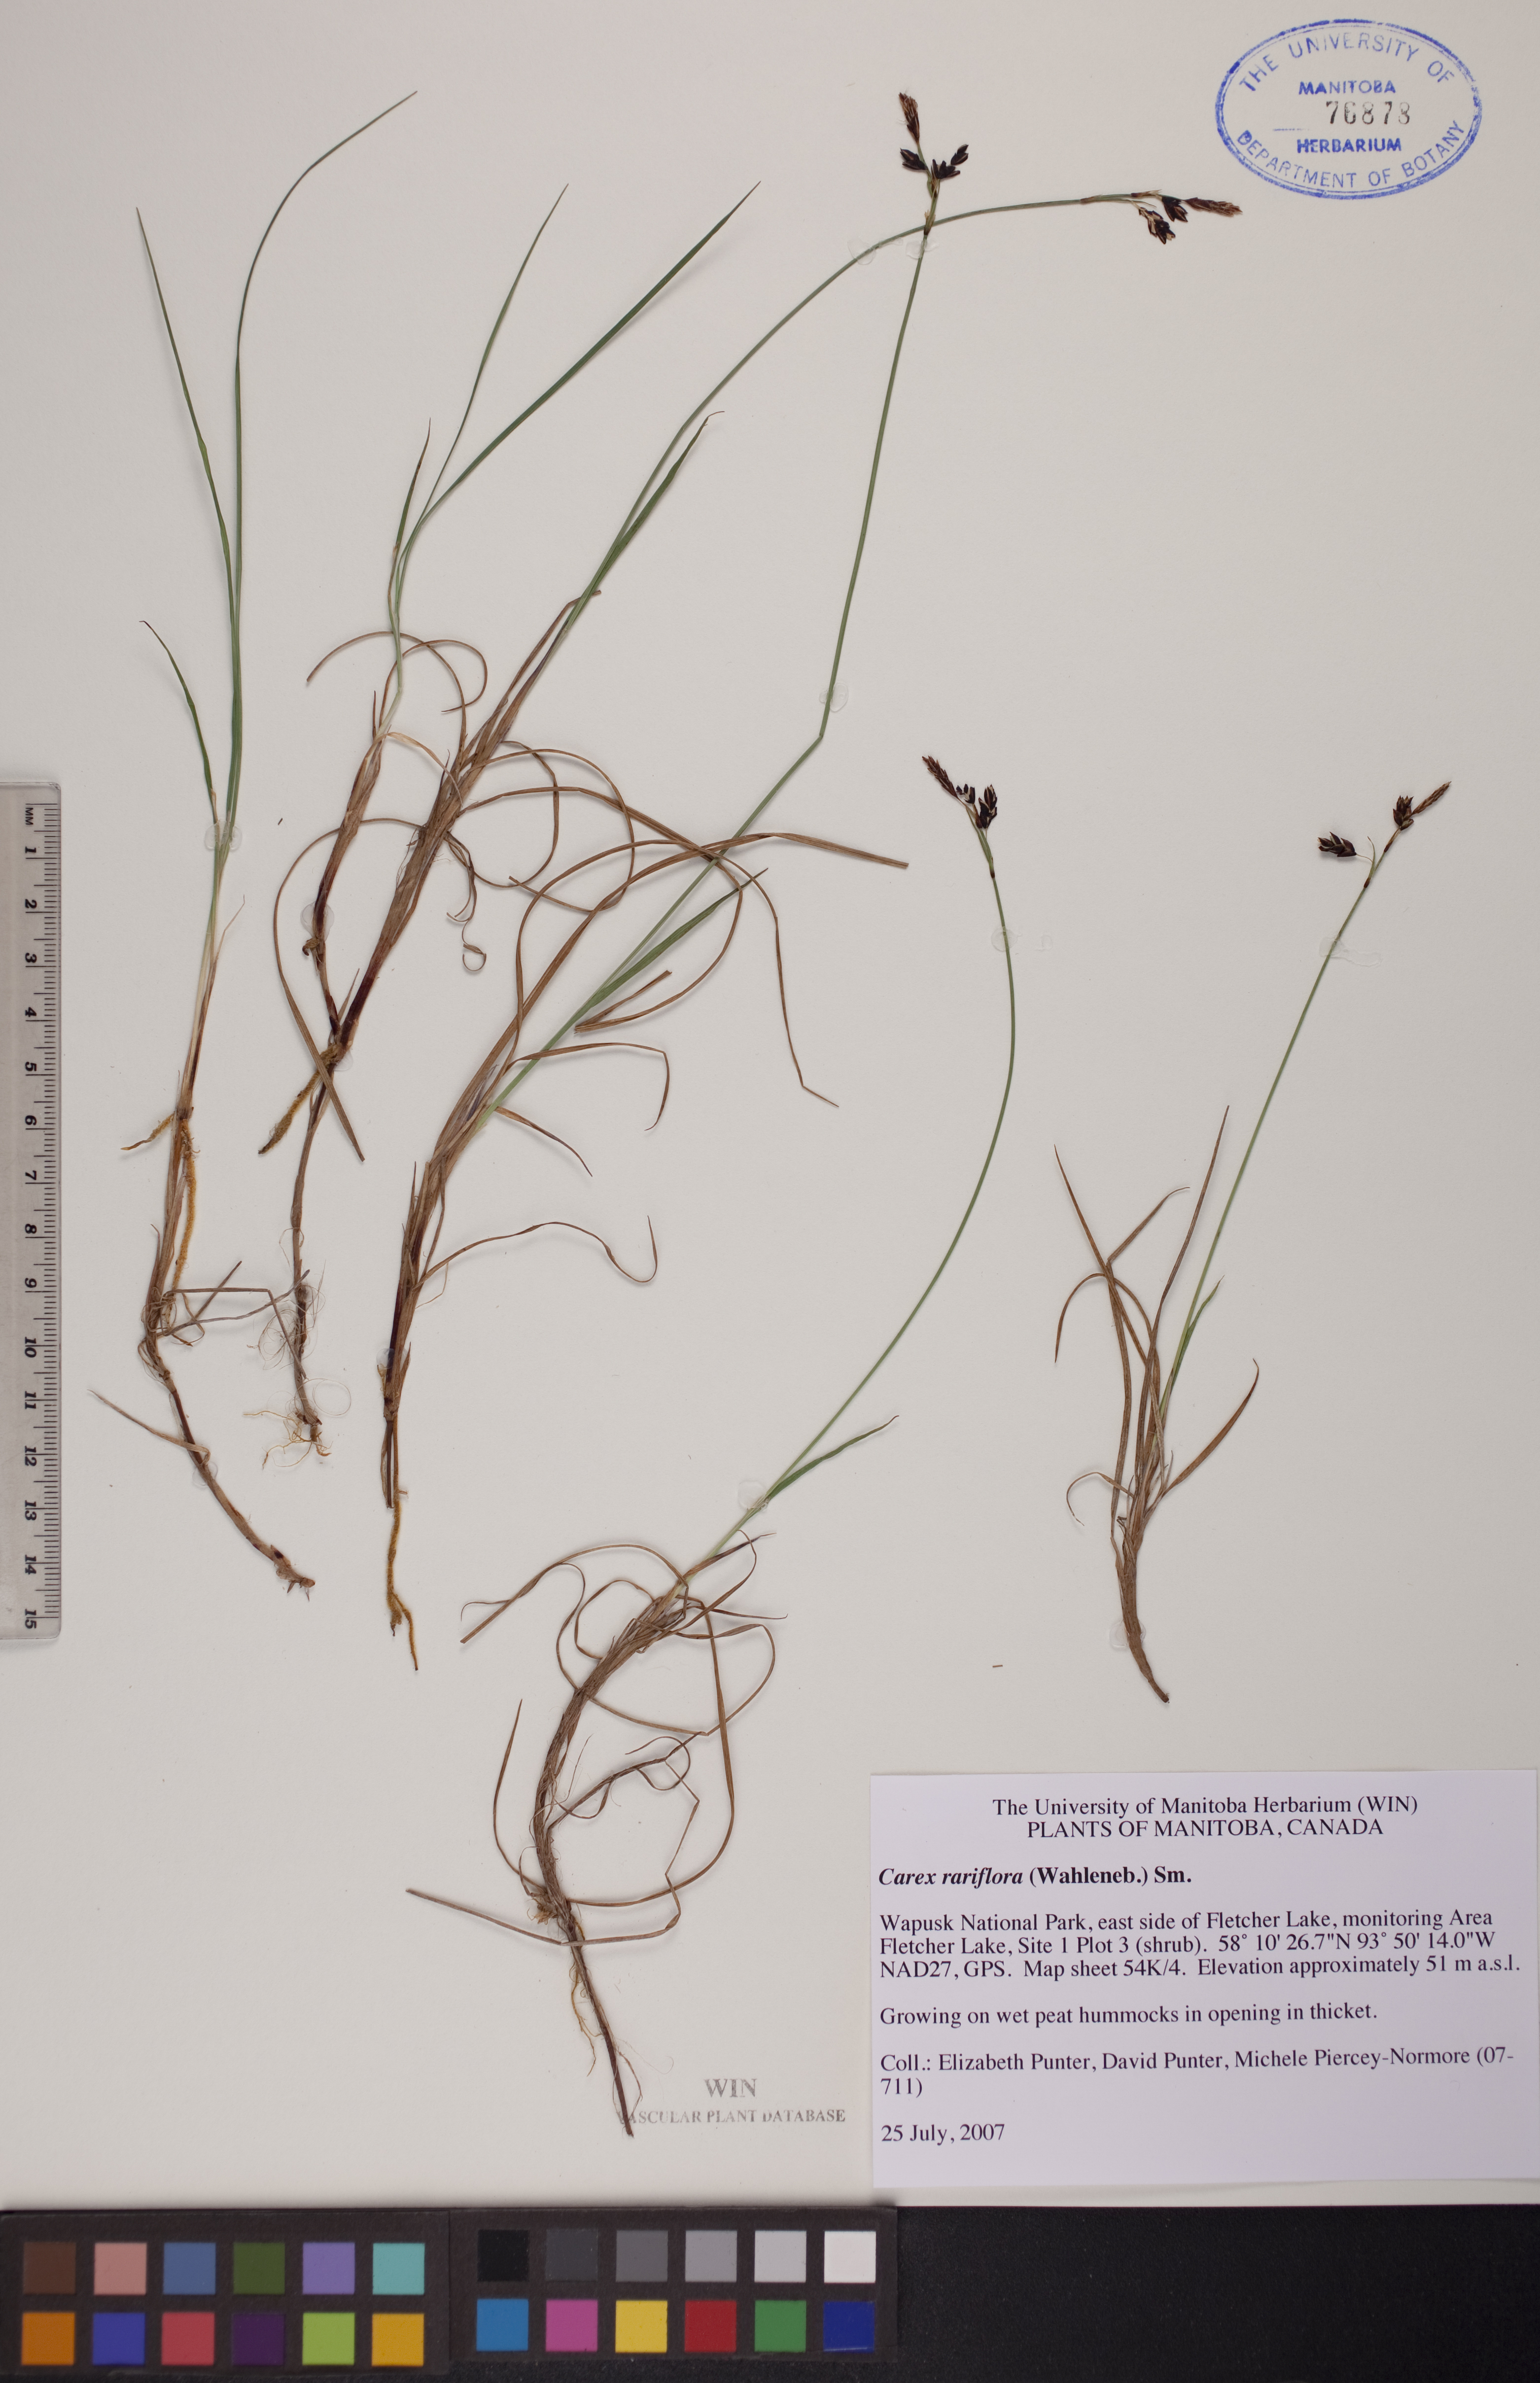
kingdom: Plantae
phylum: Tracheophyta
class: Liliopsida
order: Poales
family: Cyperaceae
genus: Carex
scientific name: Carex rariflora
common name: Loose-flowered alpine sedge
